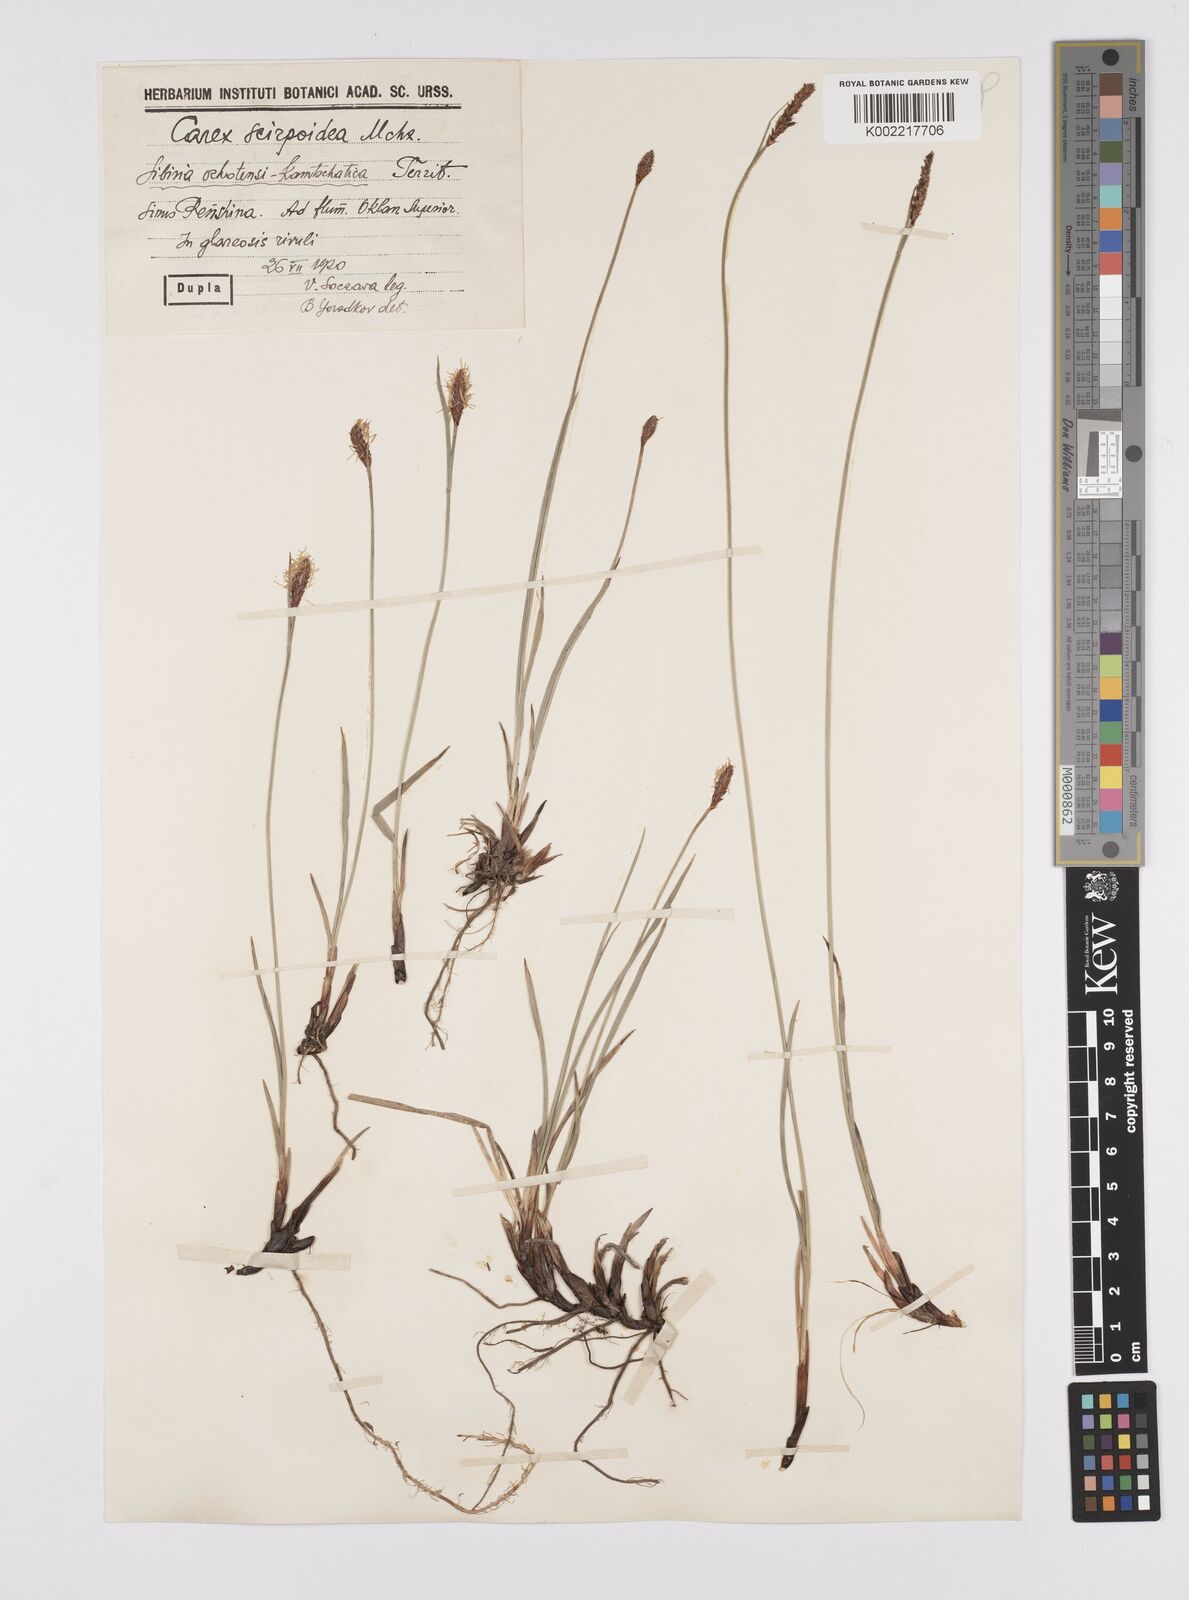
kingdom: Plantae
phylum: Tracheophyta
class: Liliopsida
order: Poales
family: Cyperaceae
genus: Carex
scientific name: Carex scirpoidea
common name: Canada single-spike sedge
